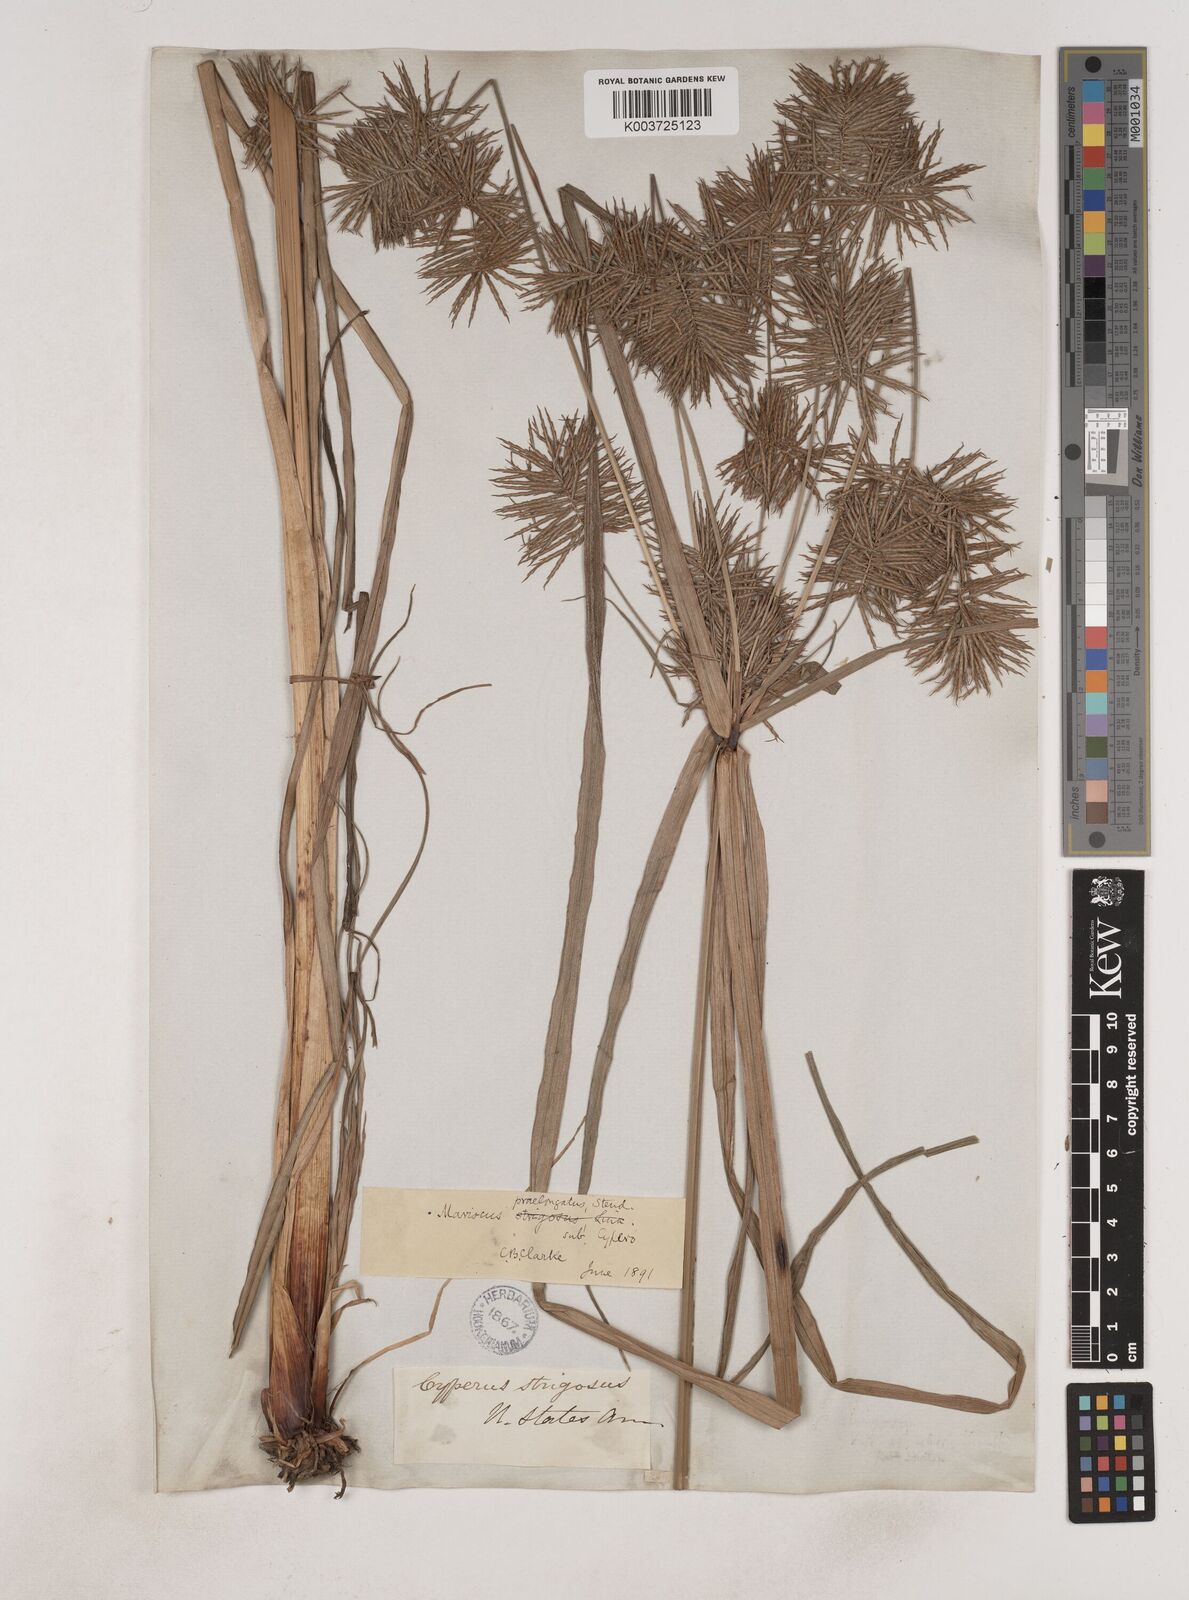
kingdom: Plantae
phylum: Tracheophyta
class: Liliopsida
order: Poales
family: Cyperaceae
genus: Cyperus
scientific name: Cyperus strigosus
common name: False nutsedge
